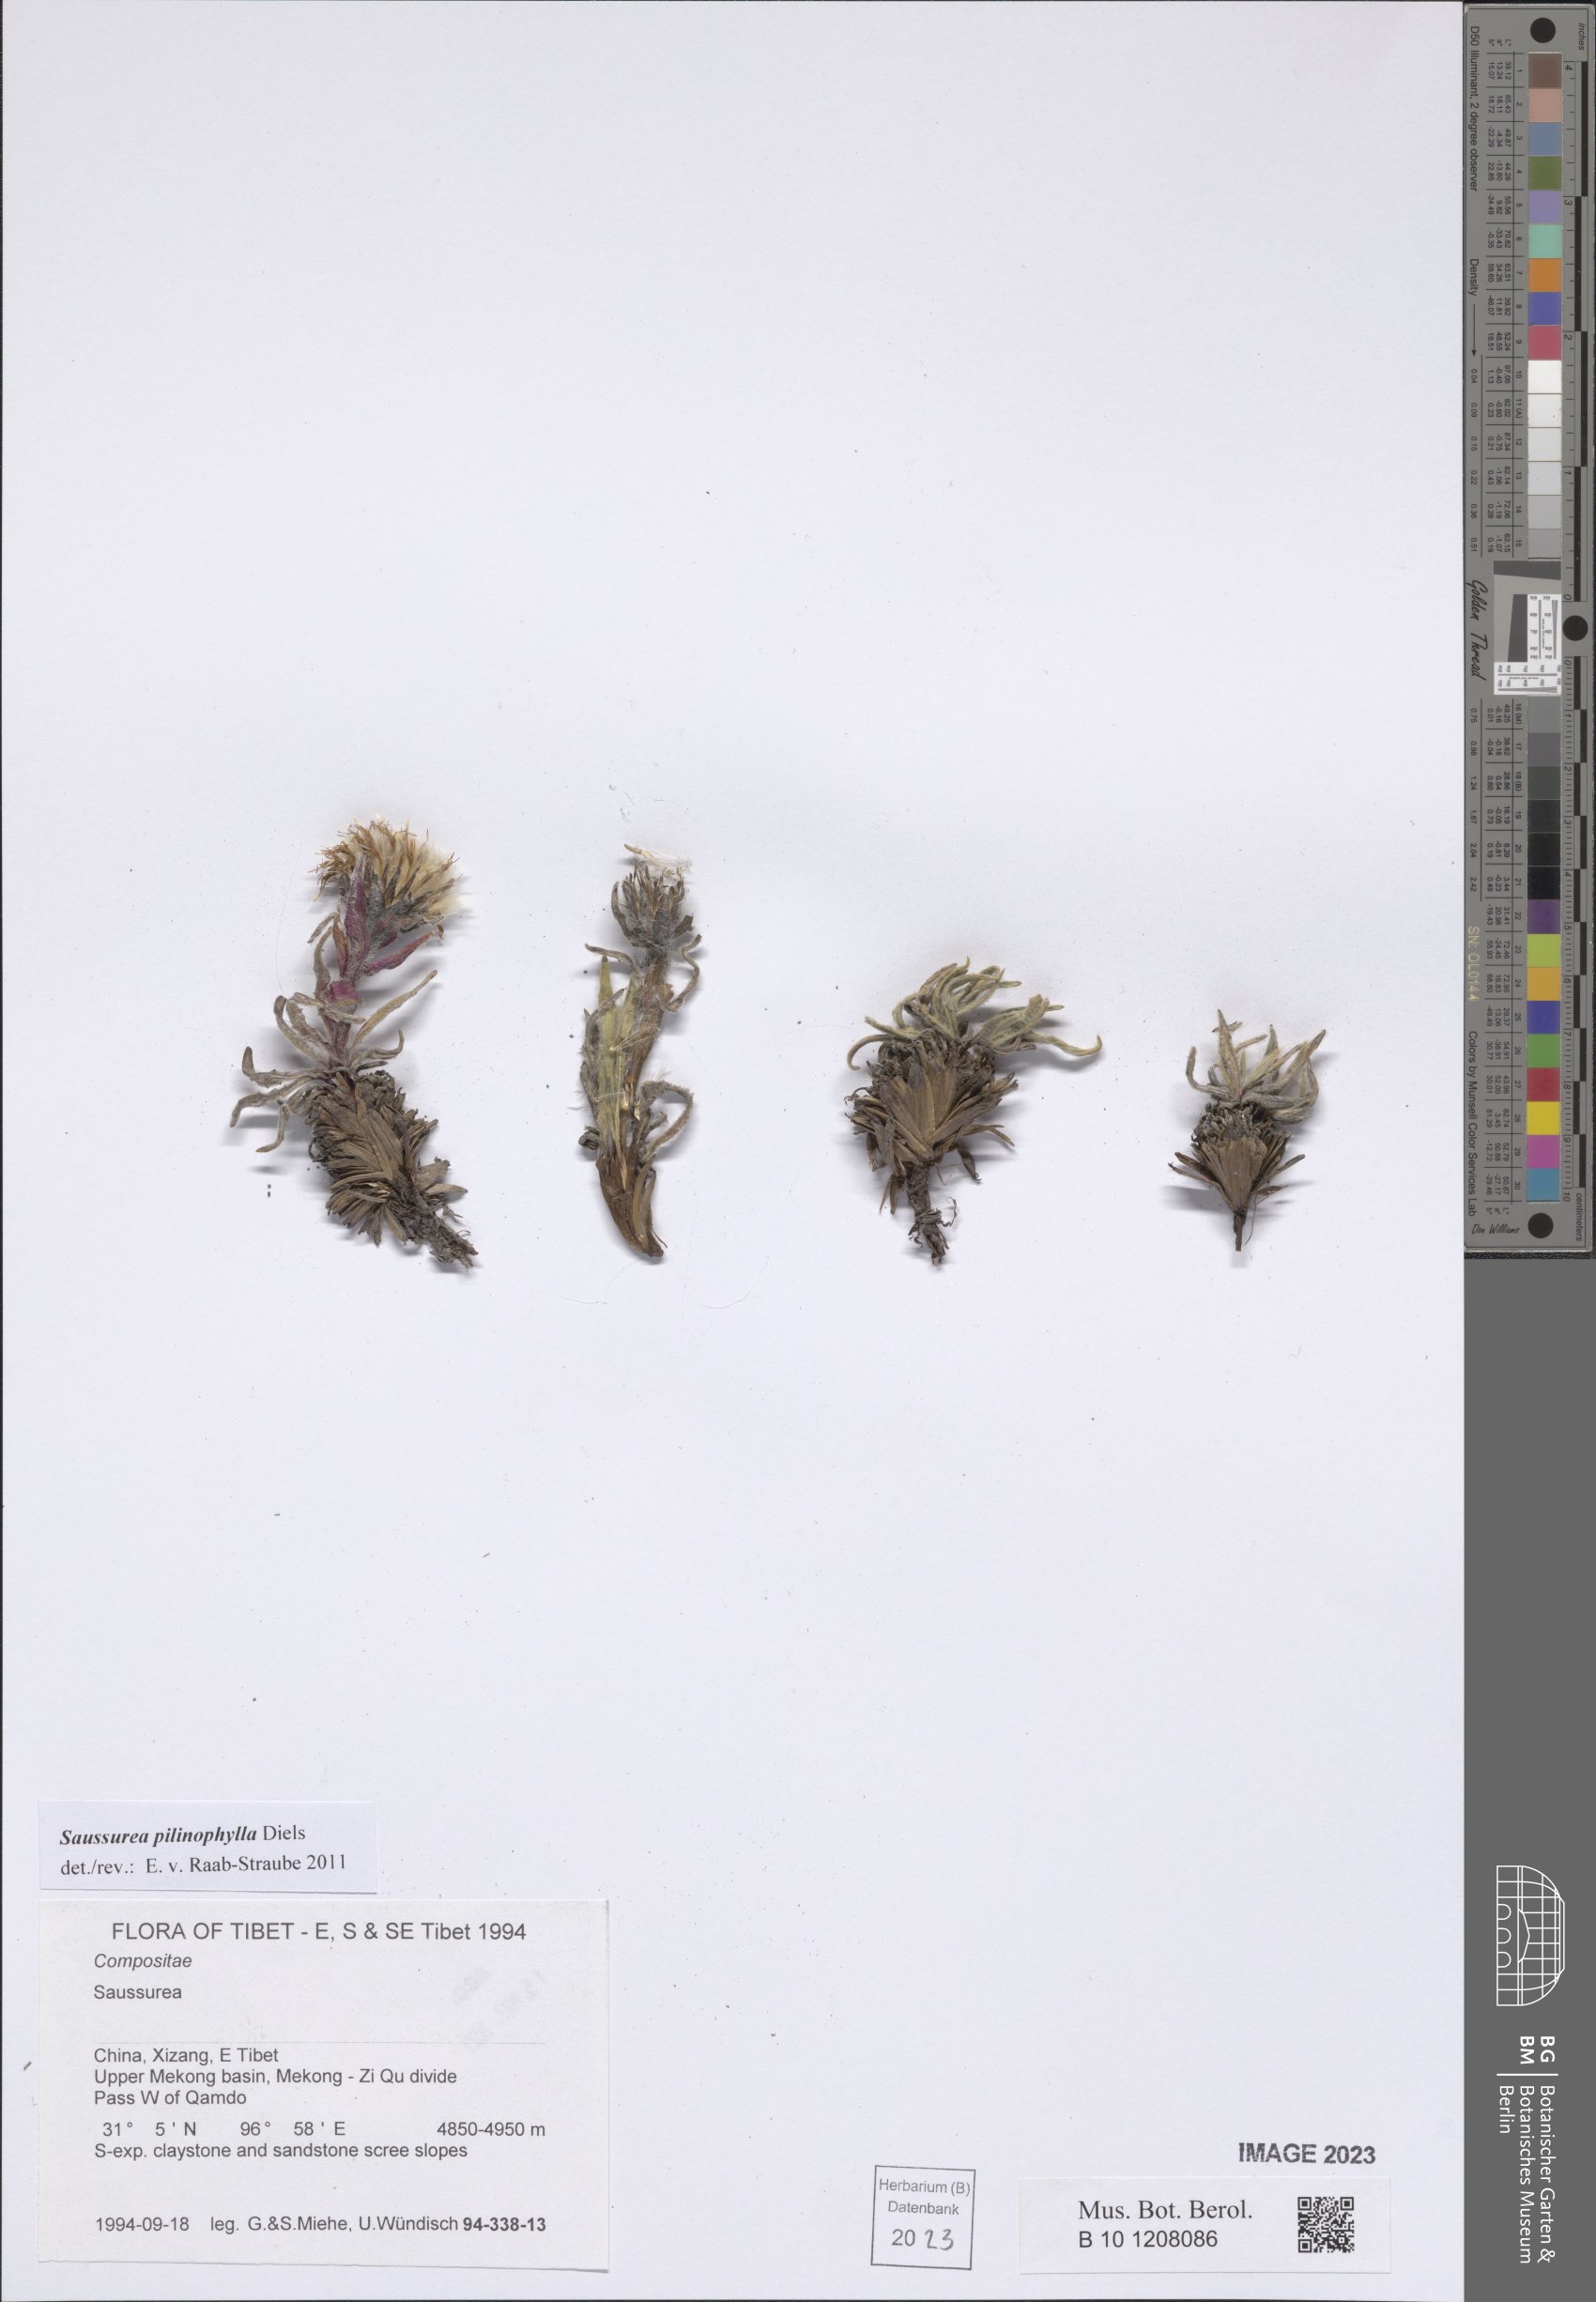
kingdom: Plantae
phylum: Tracheophyta
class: Magnoliopsida
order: Asterales
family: Asteraceae
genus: Saussurea
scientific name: Saussurea pilinophylla
